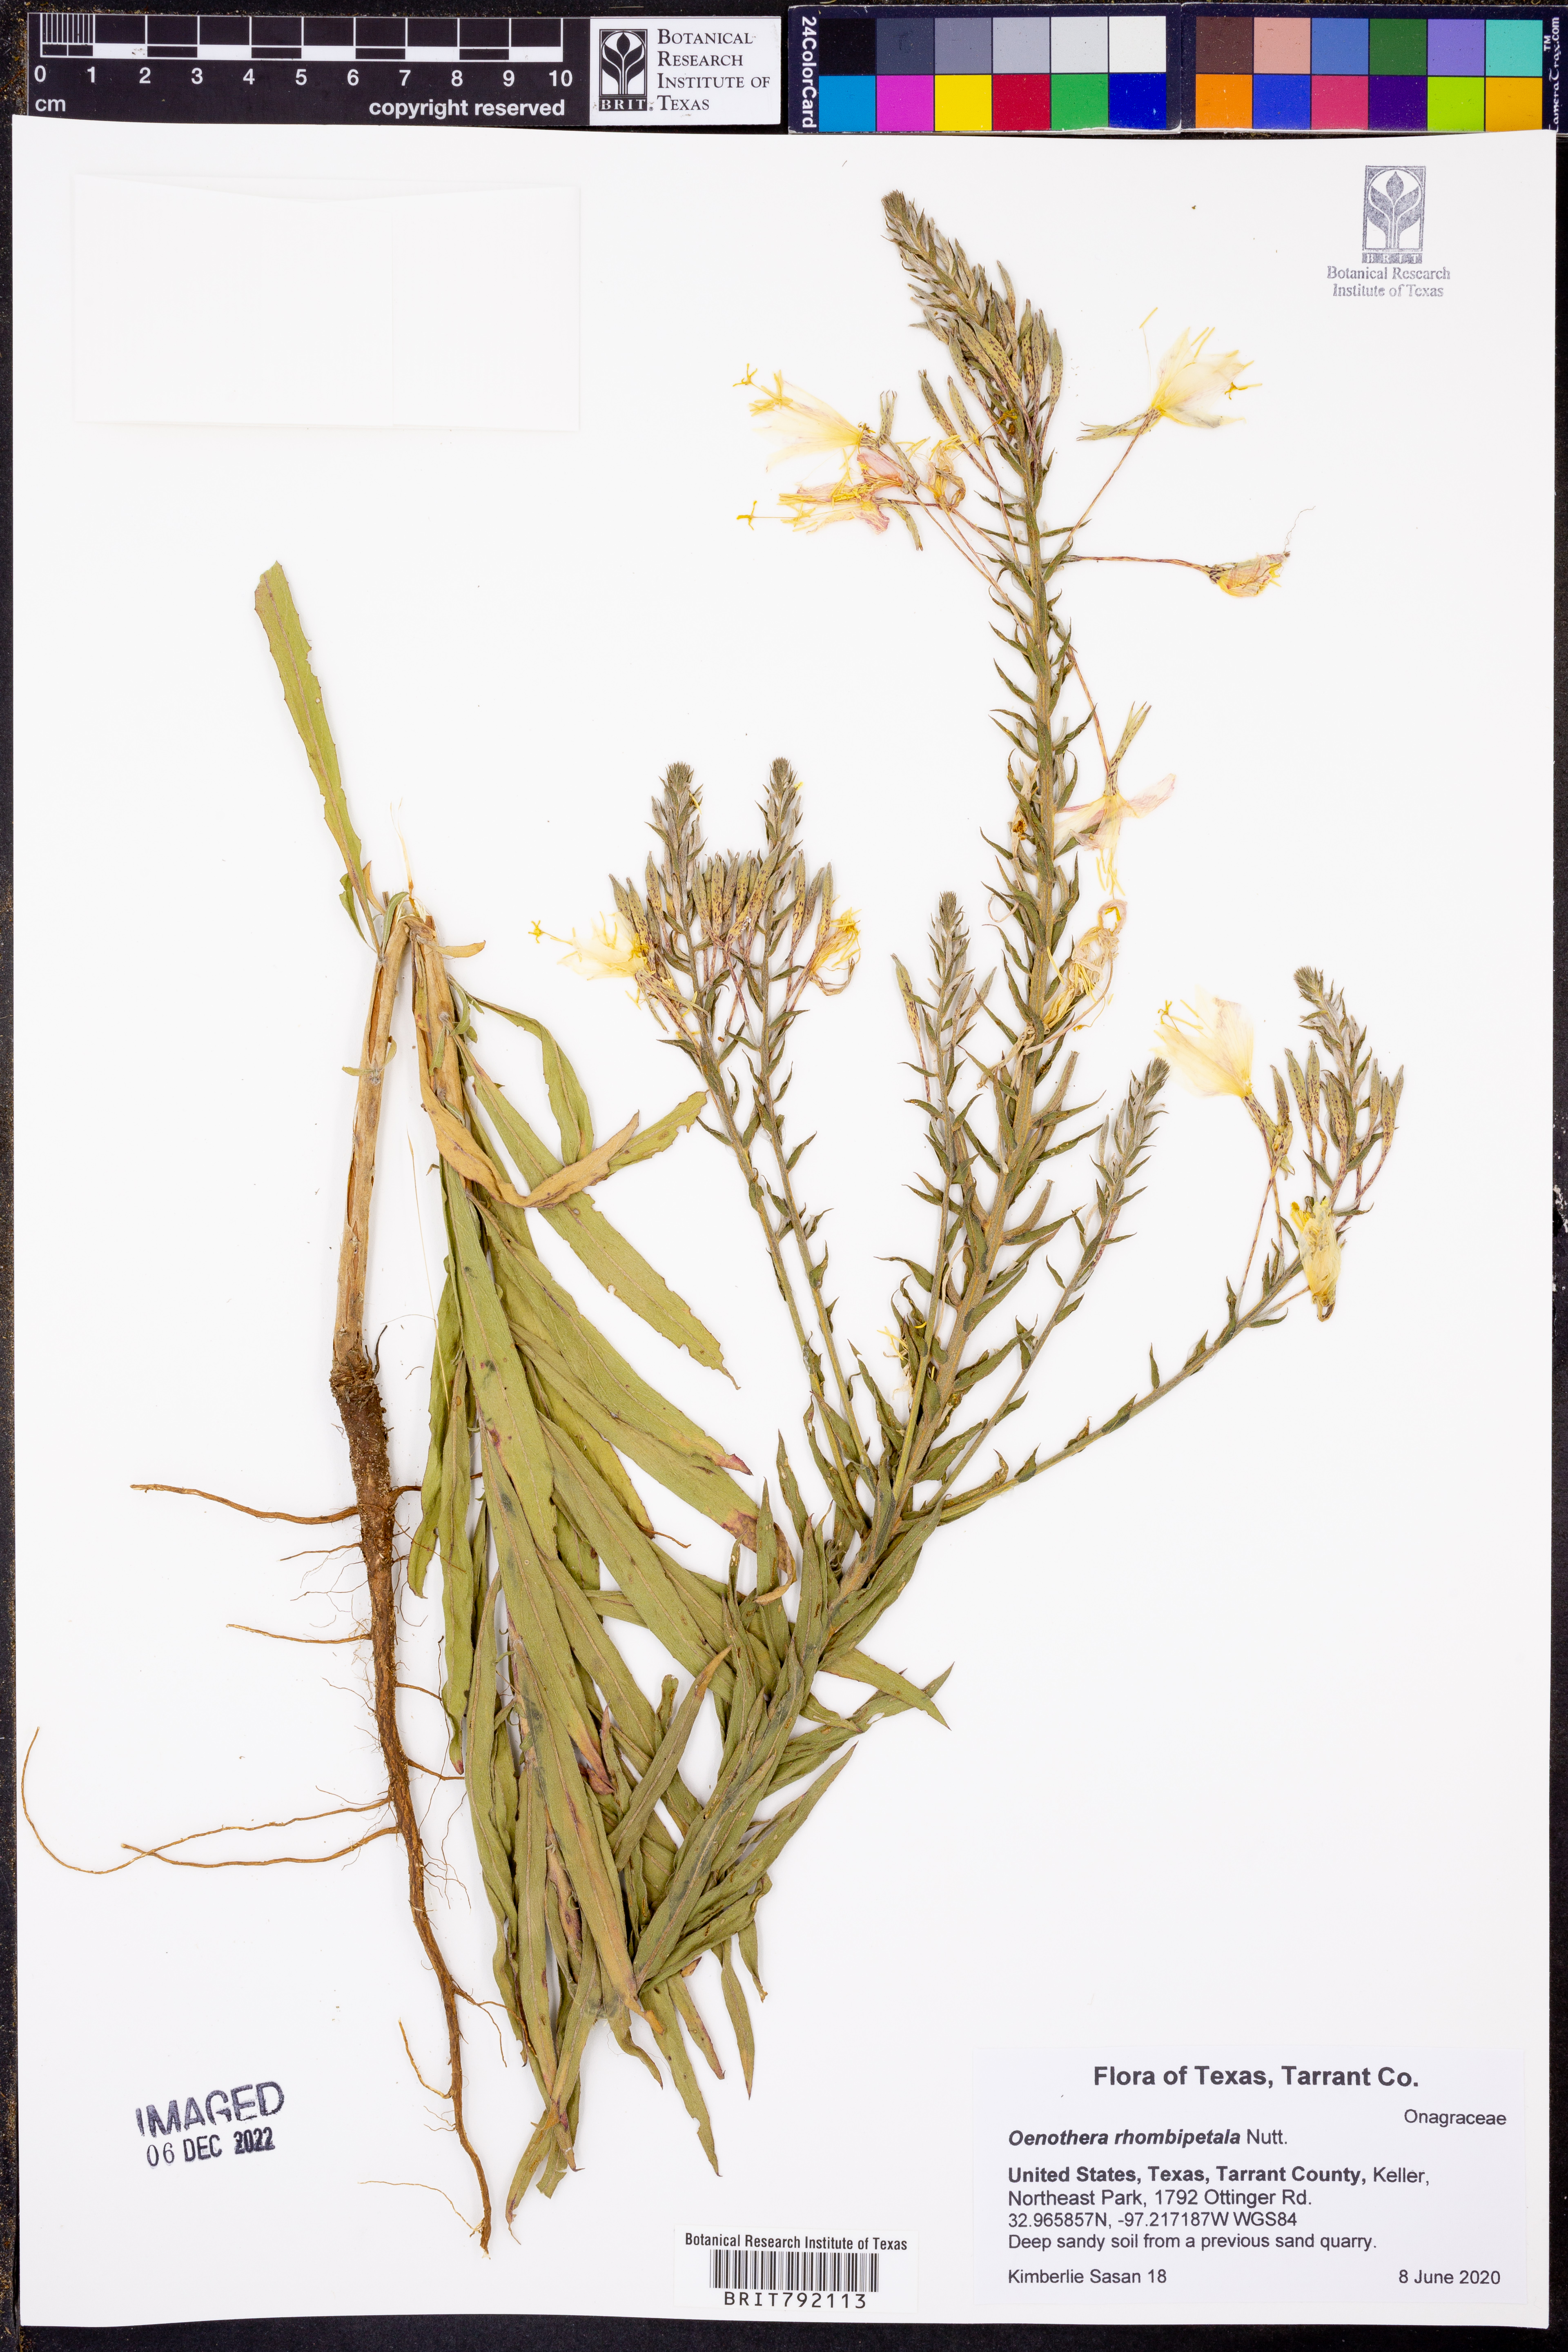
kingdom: Plantae
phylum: Tracheophyta
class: Magnoliopsida
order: Myrtales
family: Onagraceae
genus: Oenothera
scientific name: Oenothera rhombipetala
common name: Four-points evening-primrose
